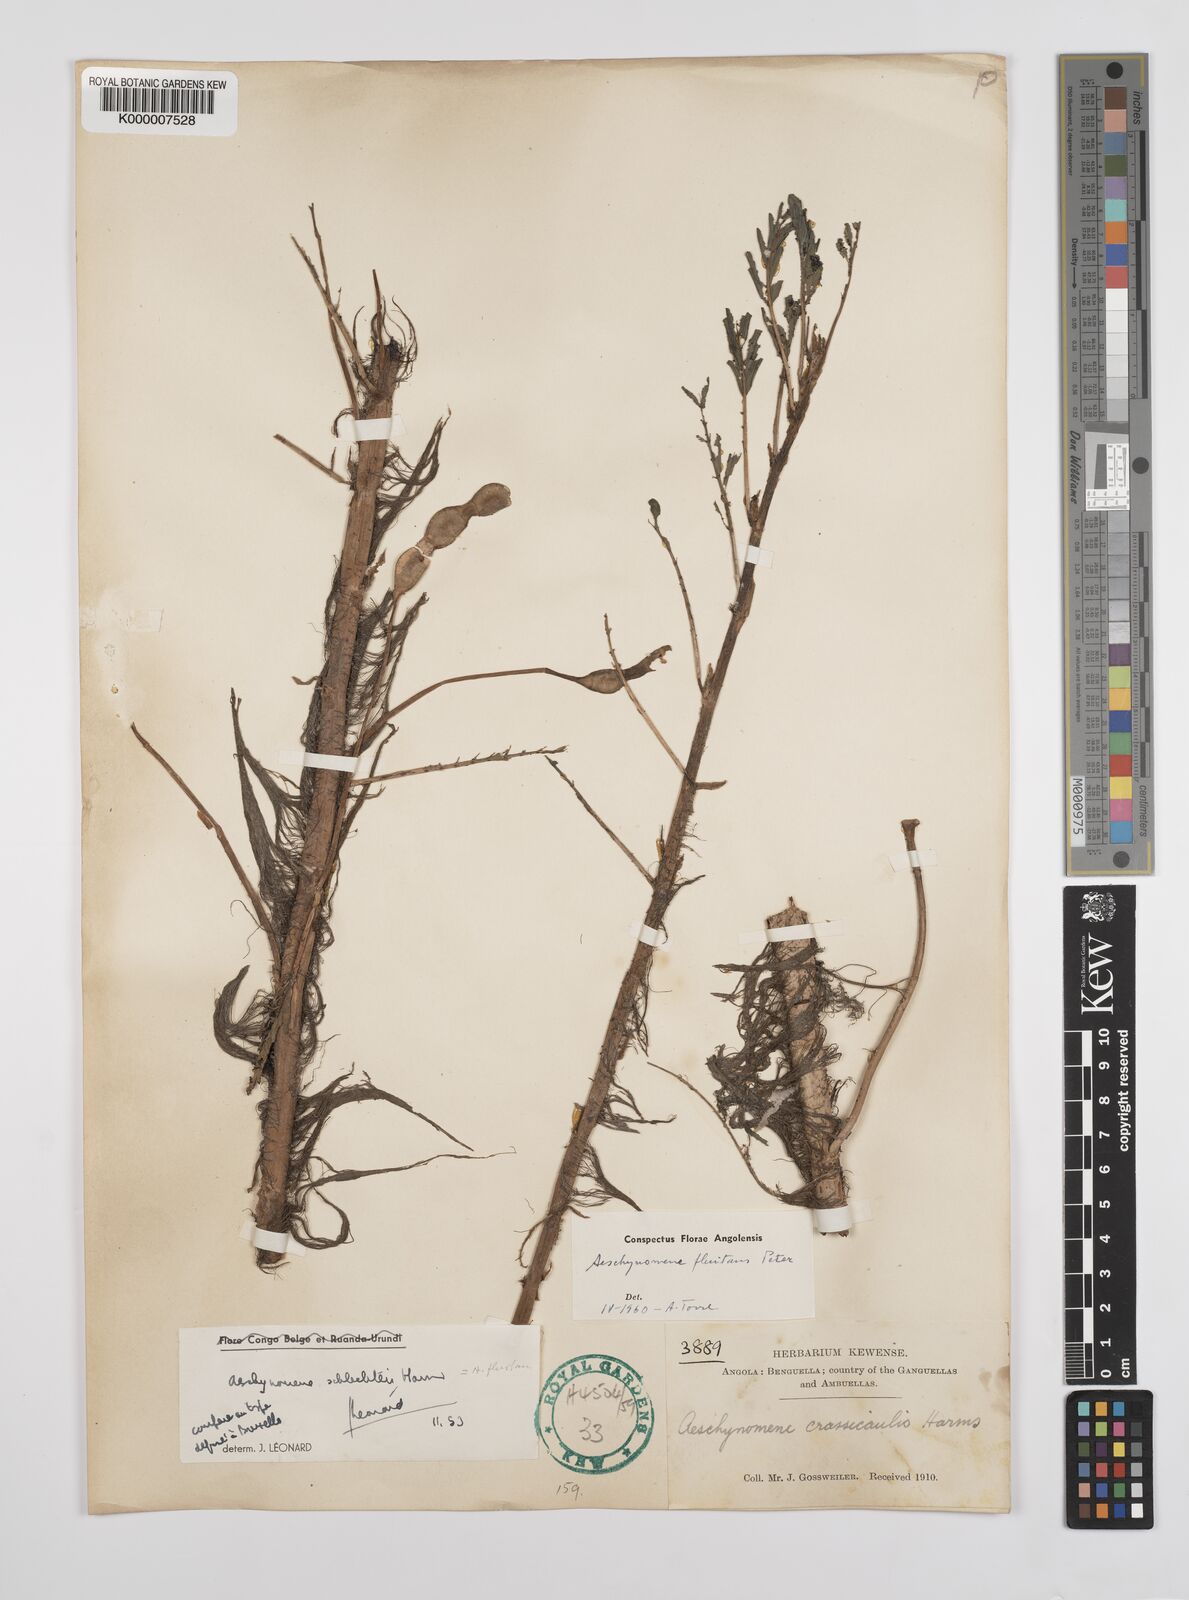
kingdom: Plantae
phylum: Tracheophyta
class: Magnoliopsida
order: Fabales
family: Fabaceae
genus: Aeschynomene
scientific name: Aeschynomene fluitans
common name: Giant water sensitive plant
